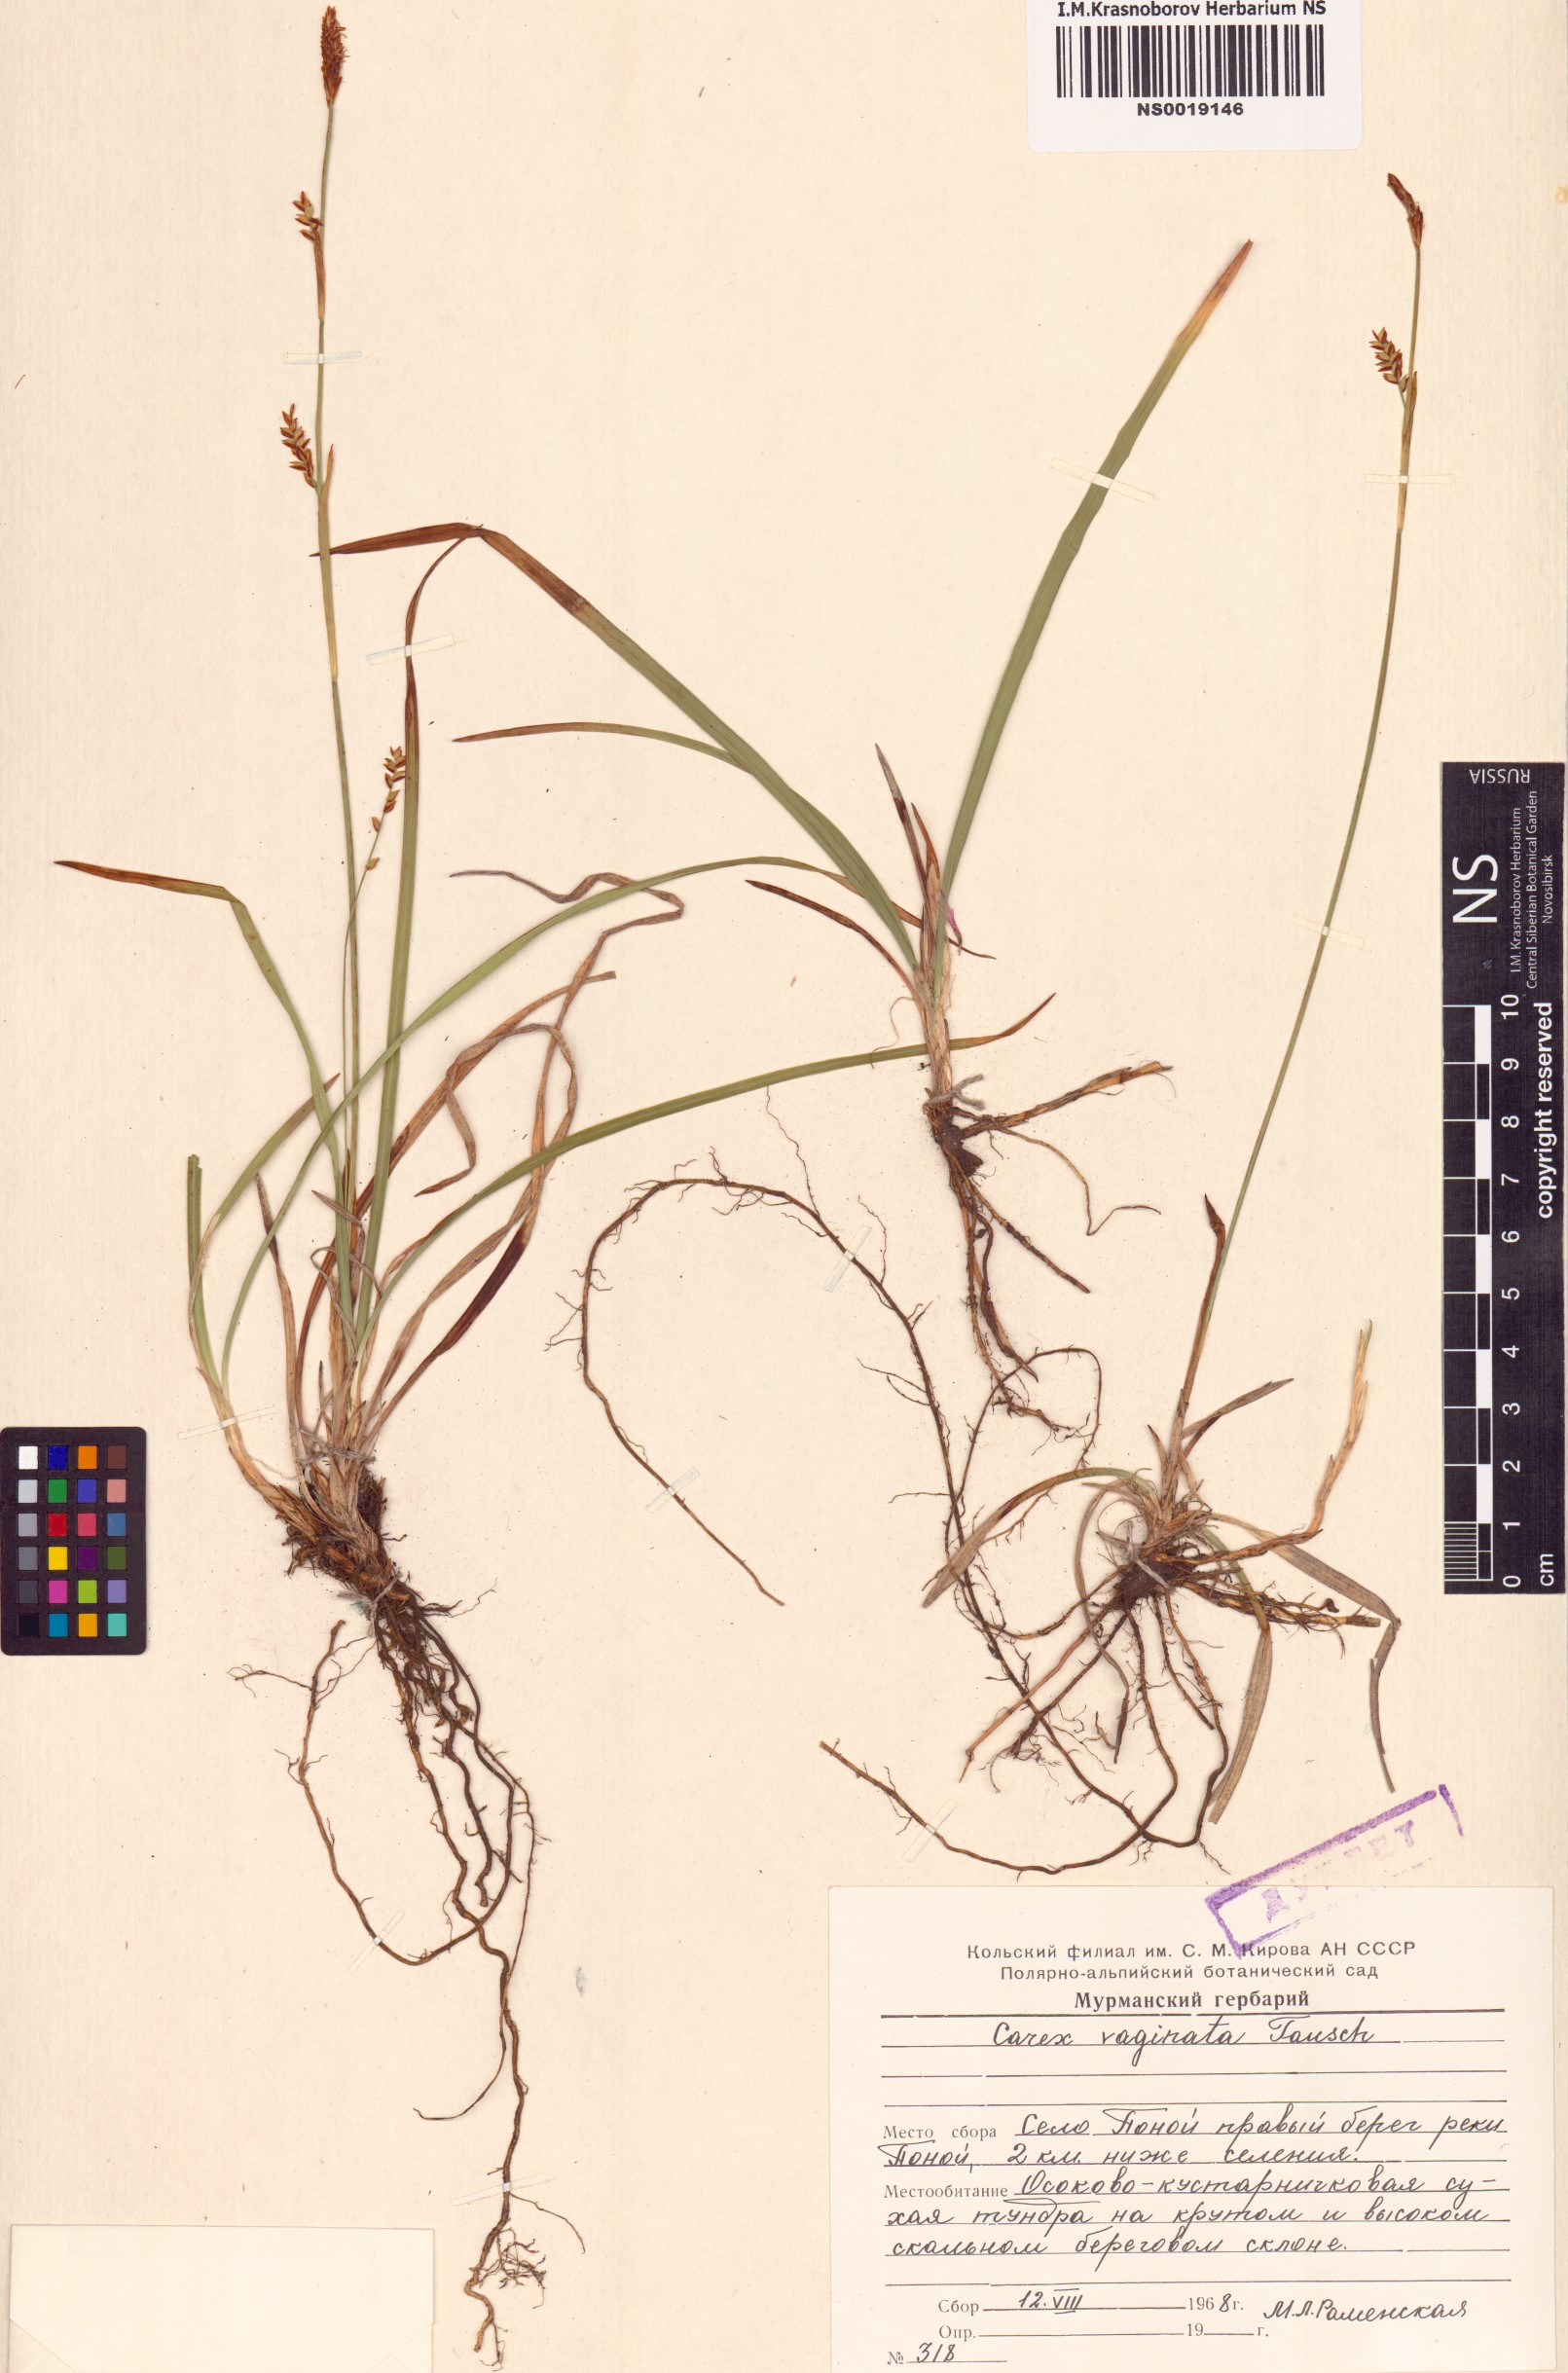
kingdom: Plantae
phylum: Tracheophyta
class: Liliopsida
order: Poales
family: Cyperaceae
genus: Carex
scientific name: Carex vaginata
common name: Sheathed sedge
